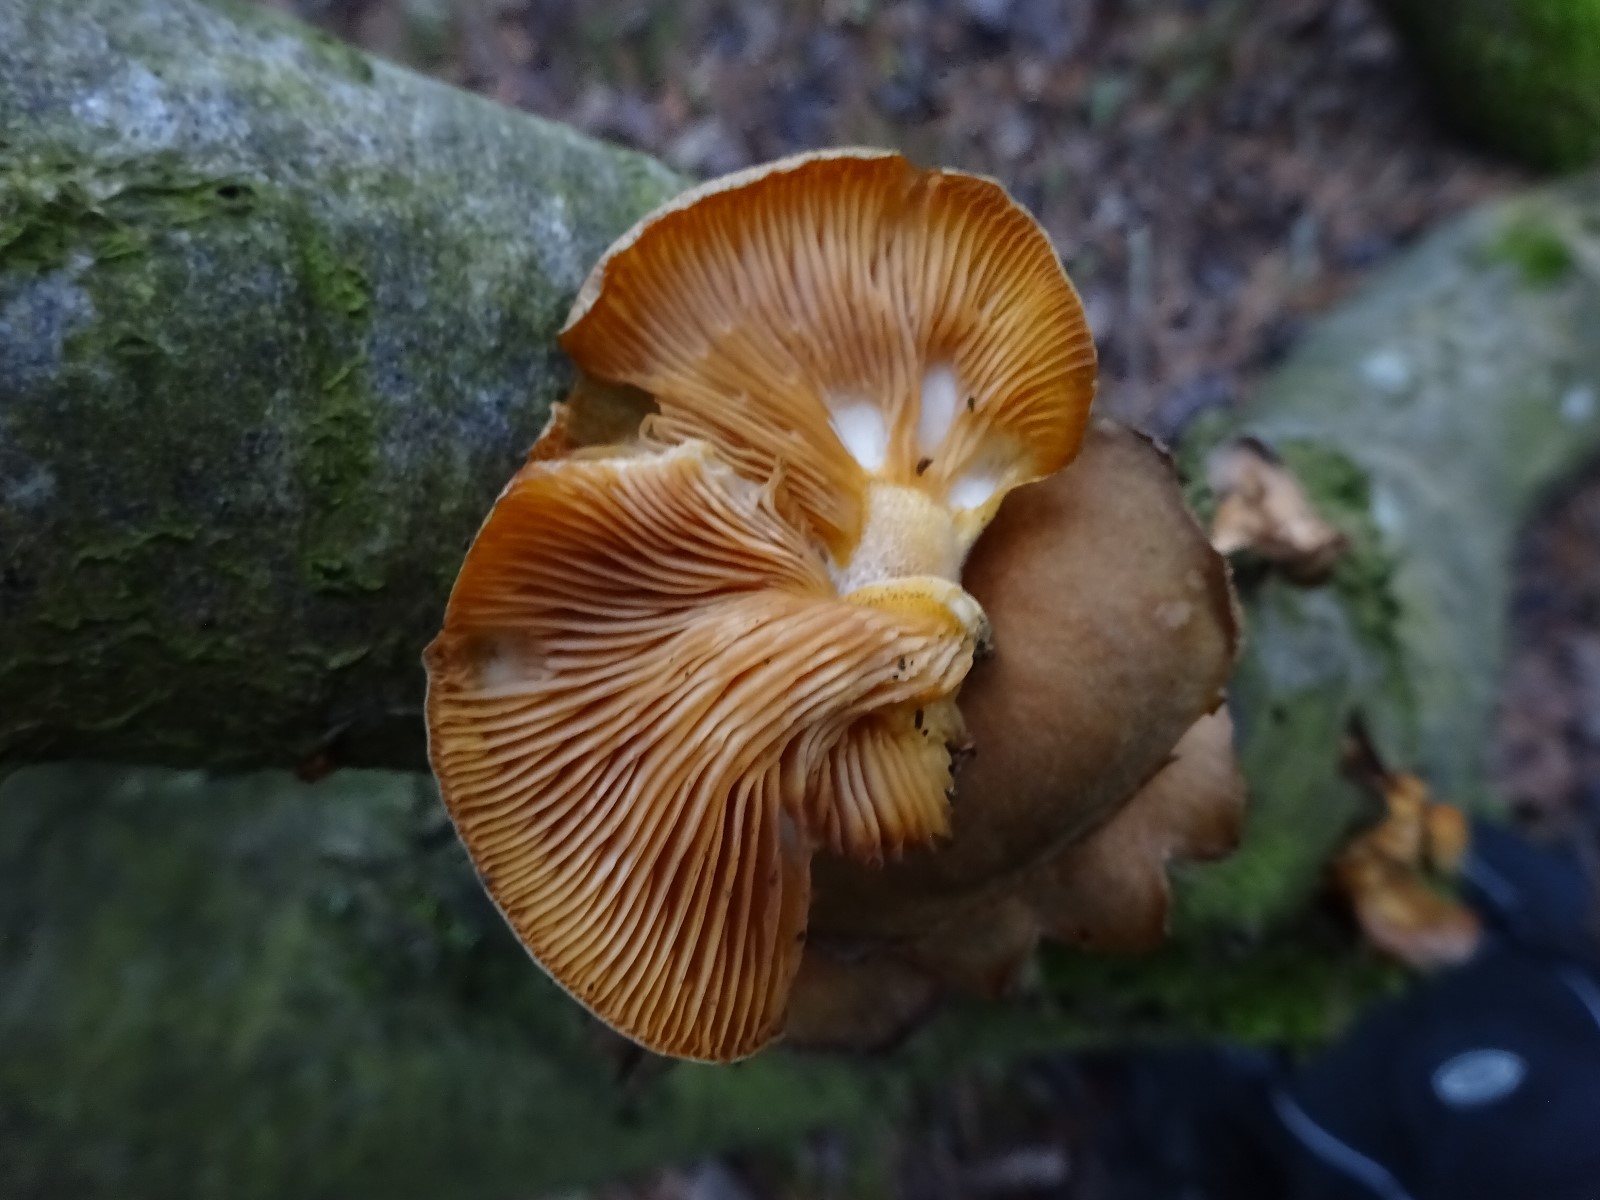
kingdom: Fungi
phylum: Basidiomycota
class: Agaricomycetes
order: Agaricales
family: Sarcomyxaceae
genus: Sarcomyxa
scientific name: Sarcomyxa serotina
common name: gummihat
